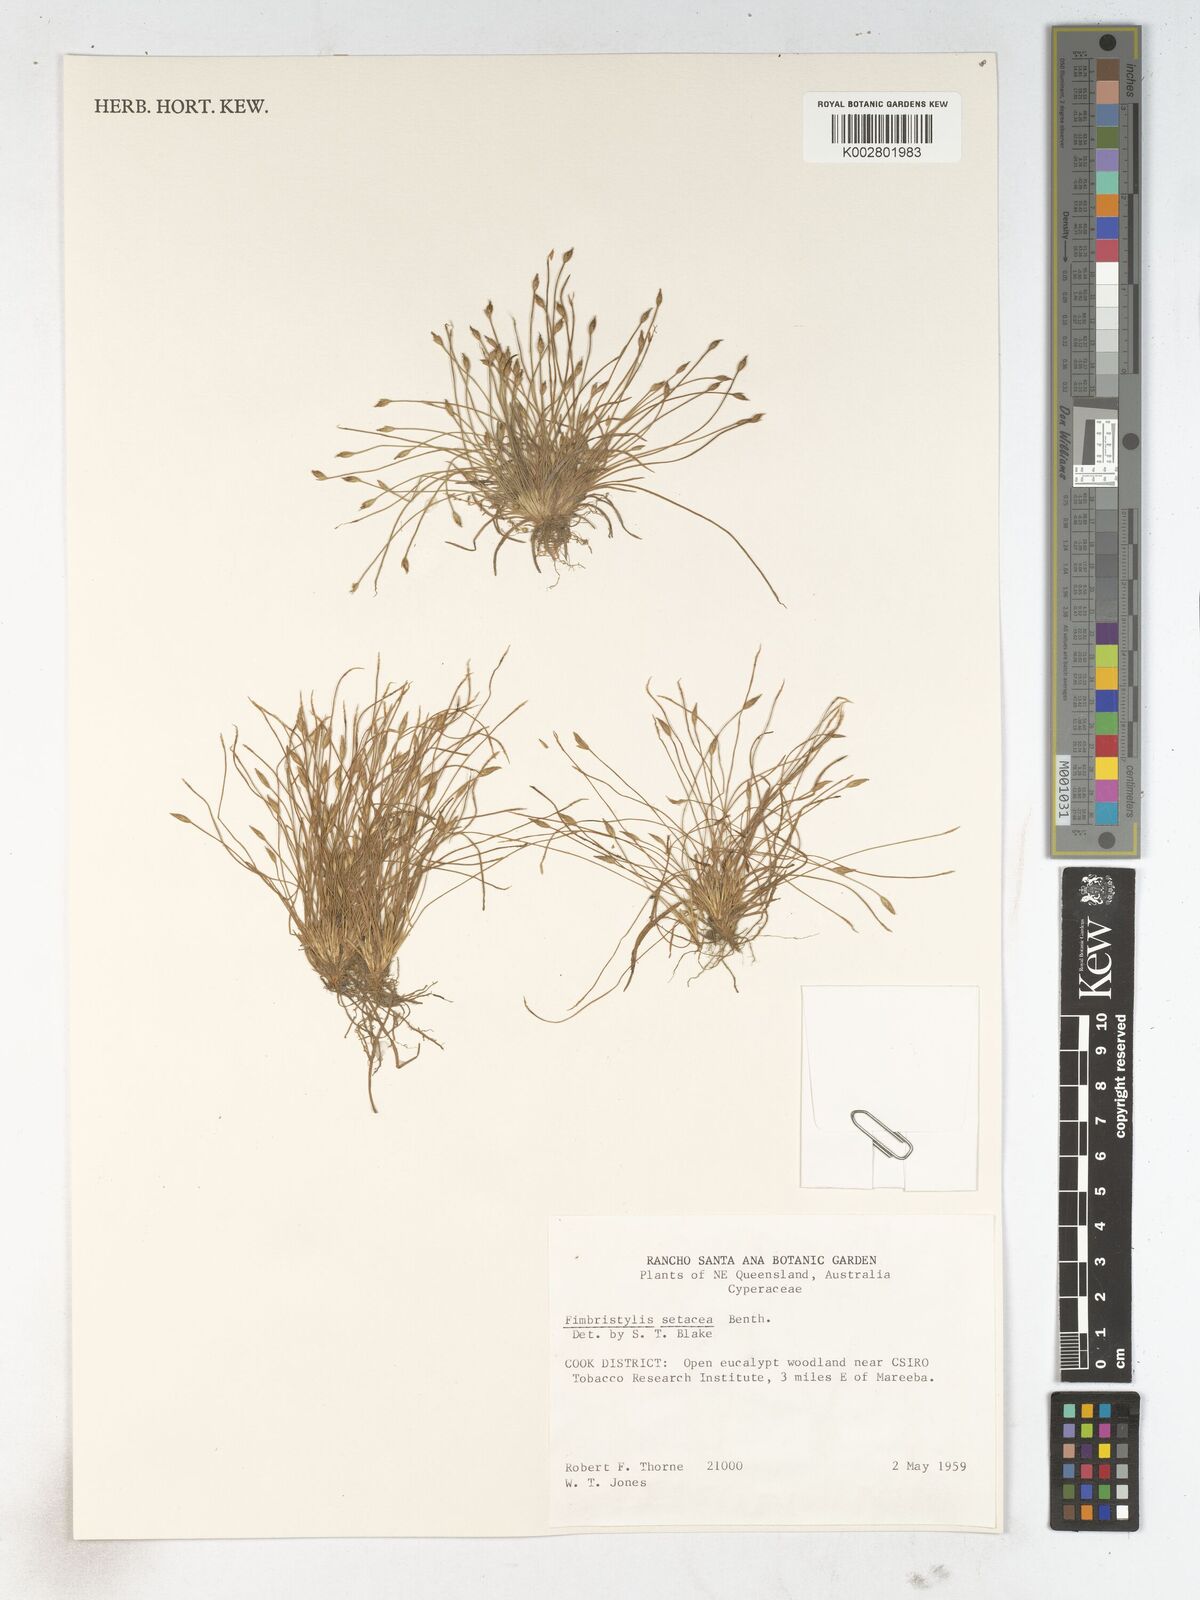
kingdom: Plantae
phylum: Tracheophyta
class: Liliopsida
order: Poales
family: Cyperaceae
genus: Fimbristylis
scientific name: Fimbristylis acicularis
